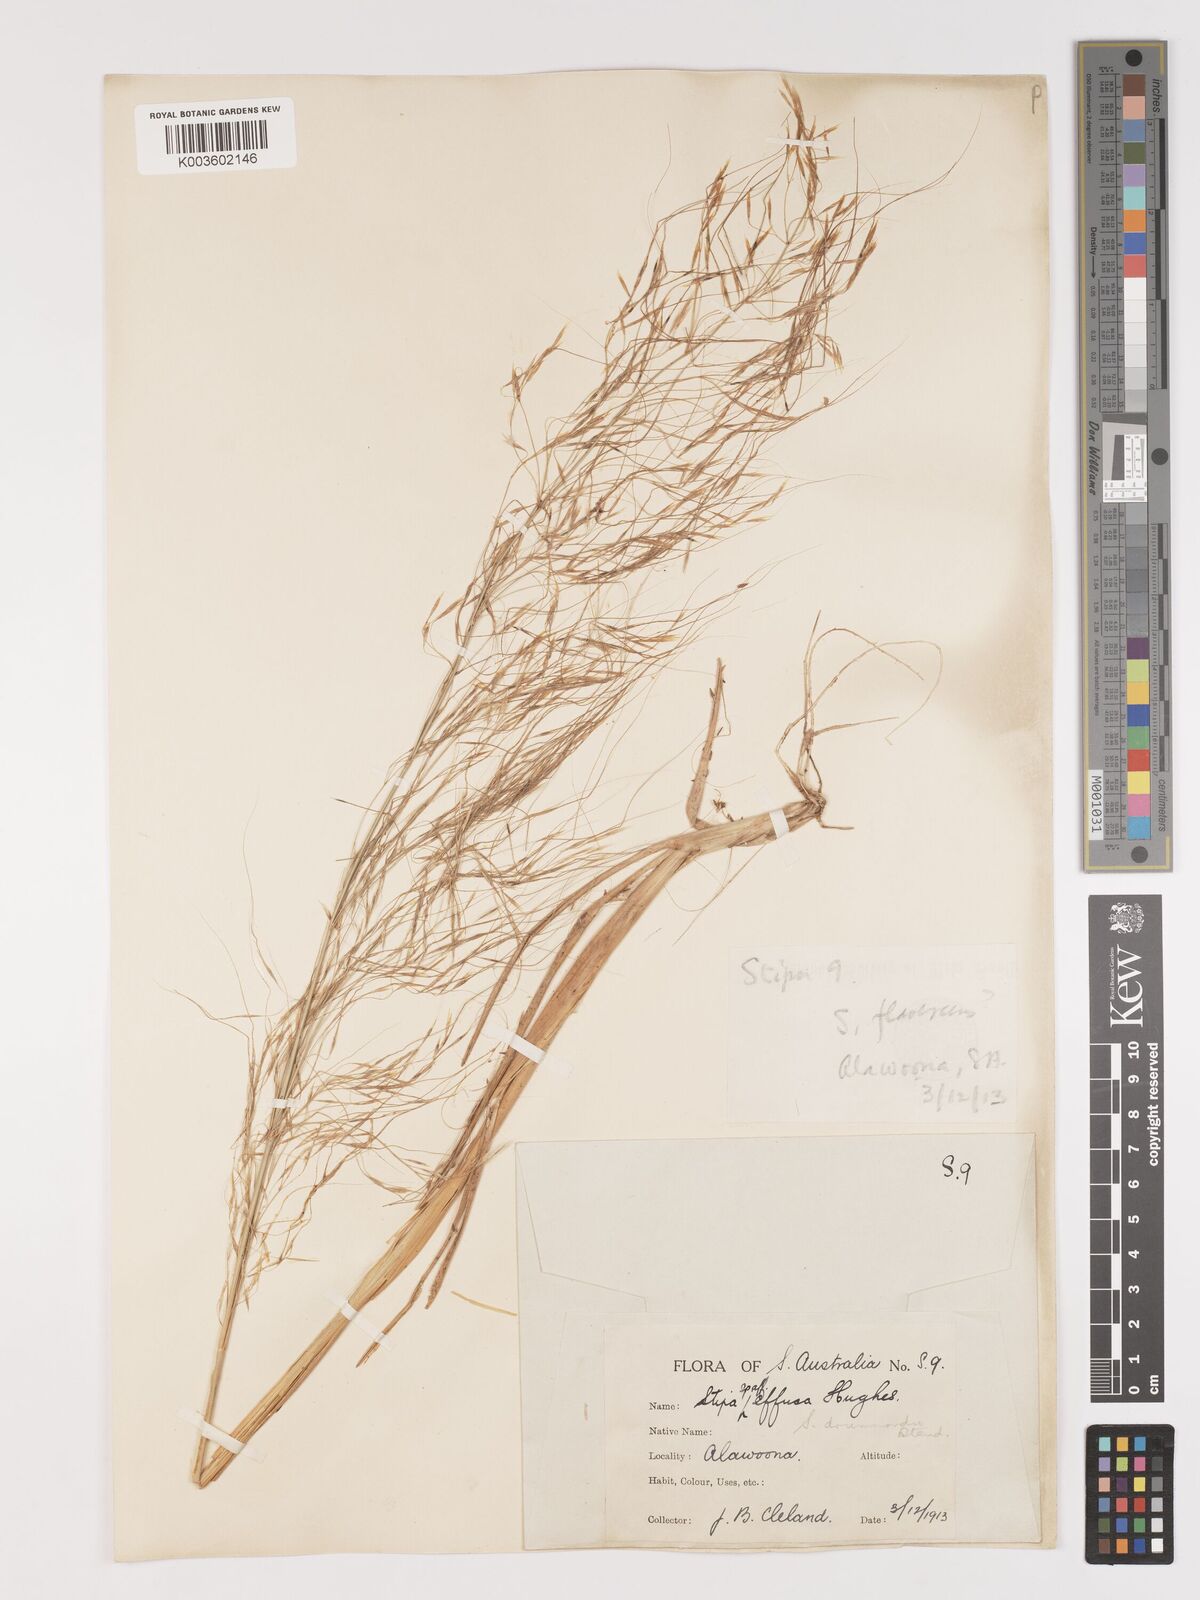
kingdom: Plantae
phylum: Tracheophyta
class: Liliopsida
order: Poales
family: Poaceae
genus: Austrostipa
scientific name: Austrostipa drummondii
